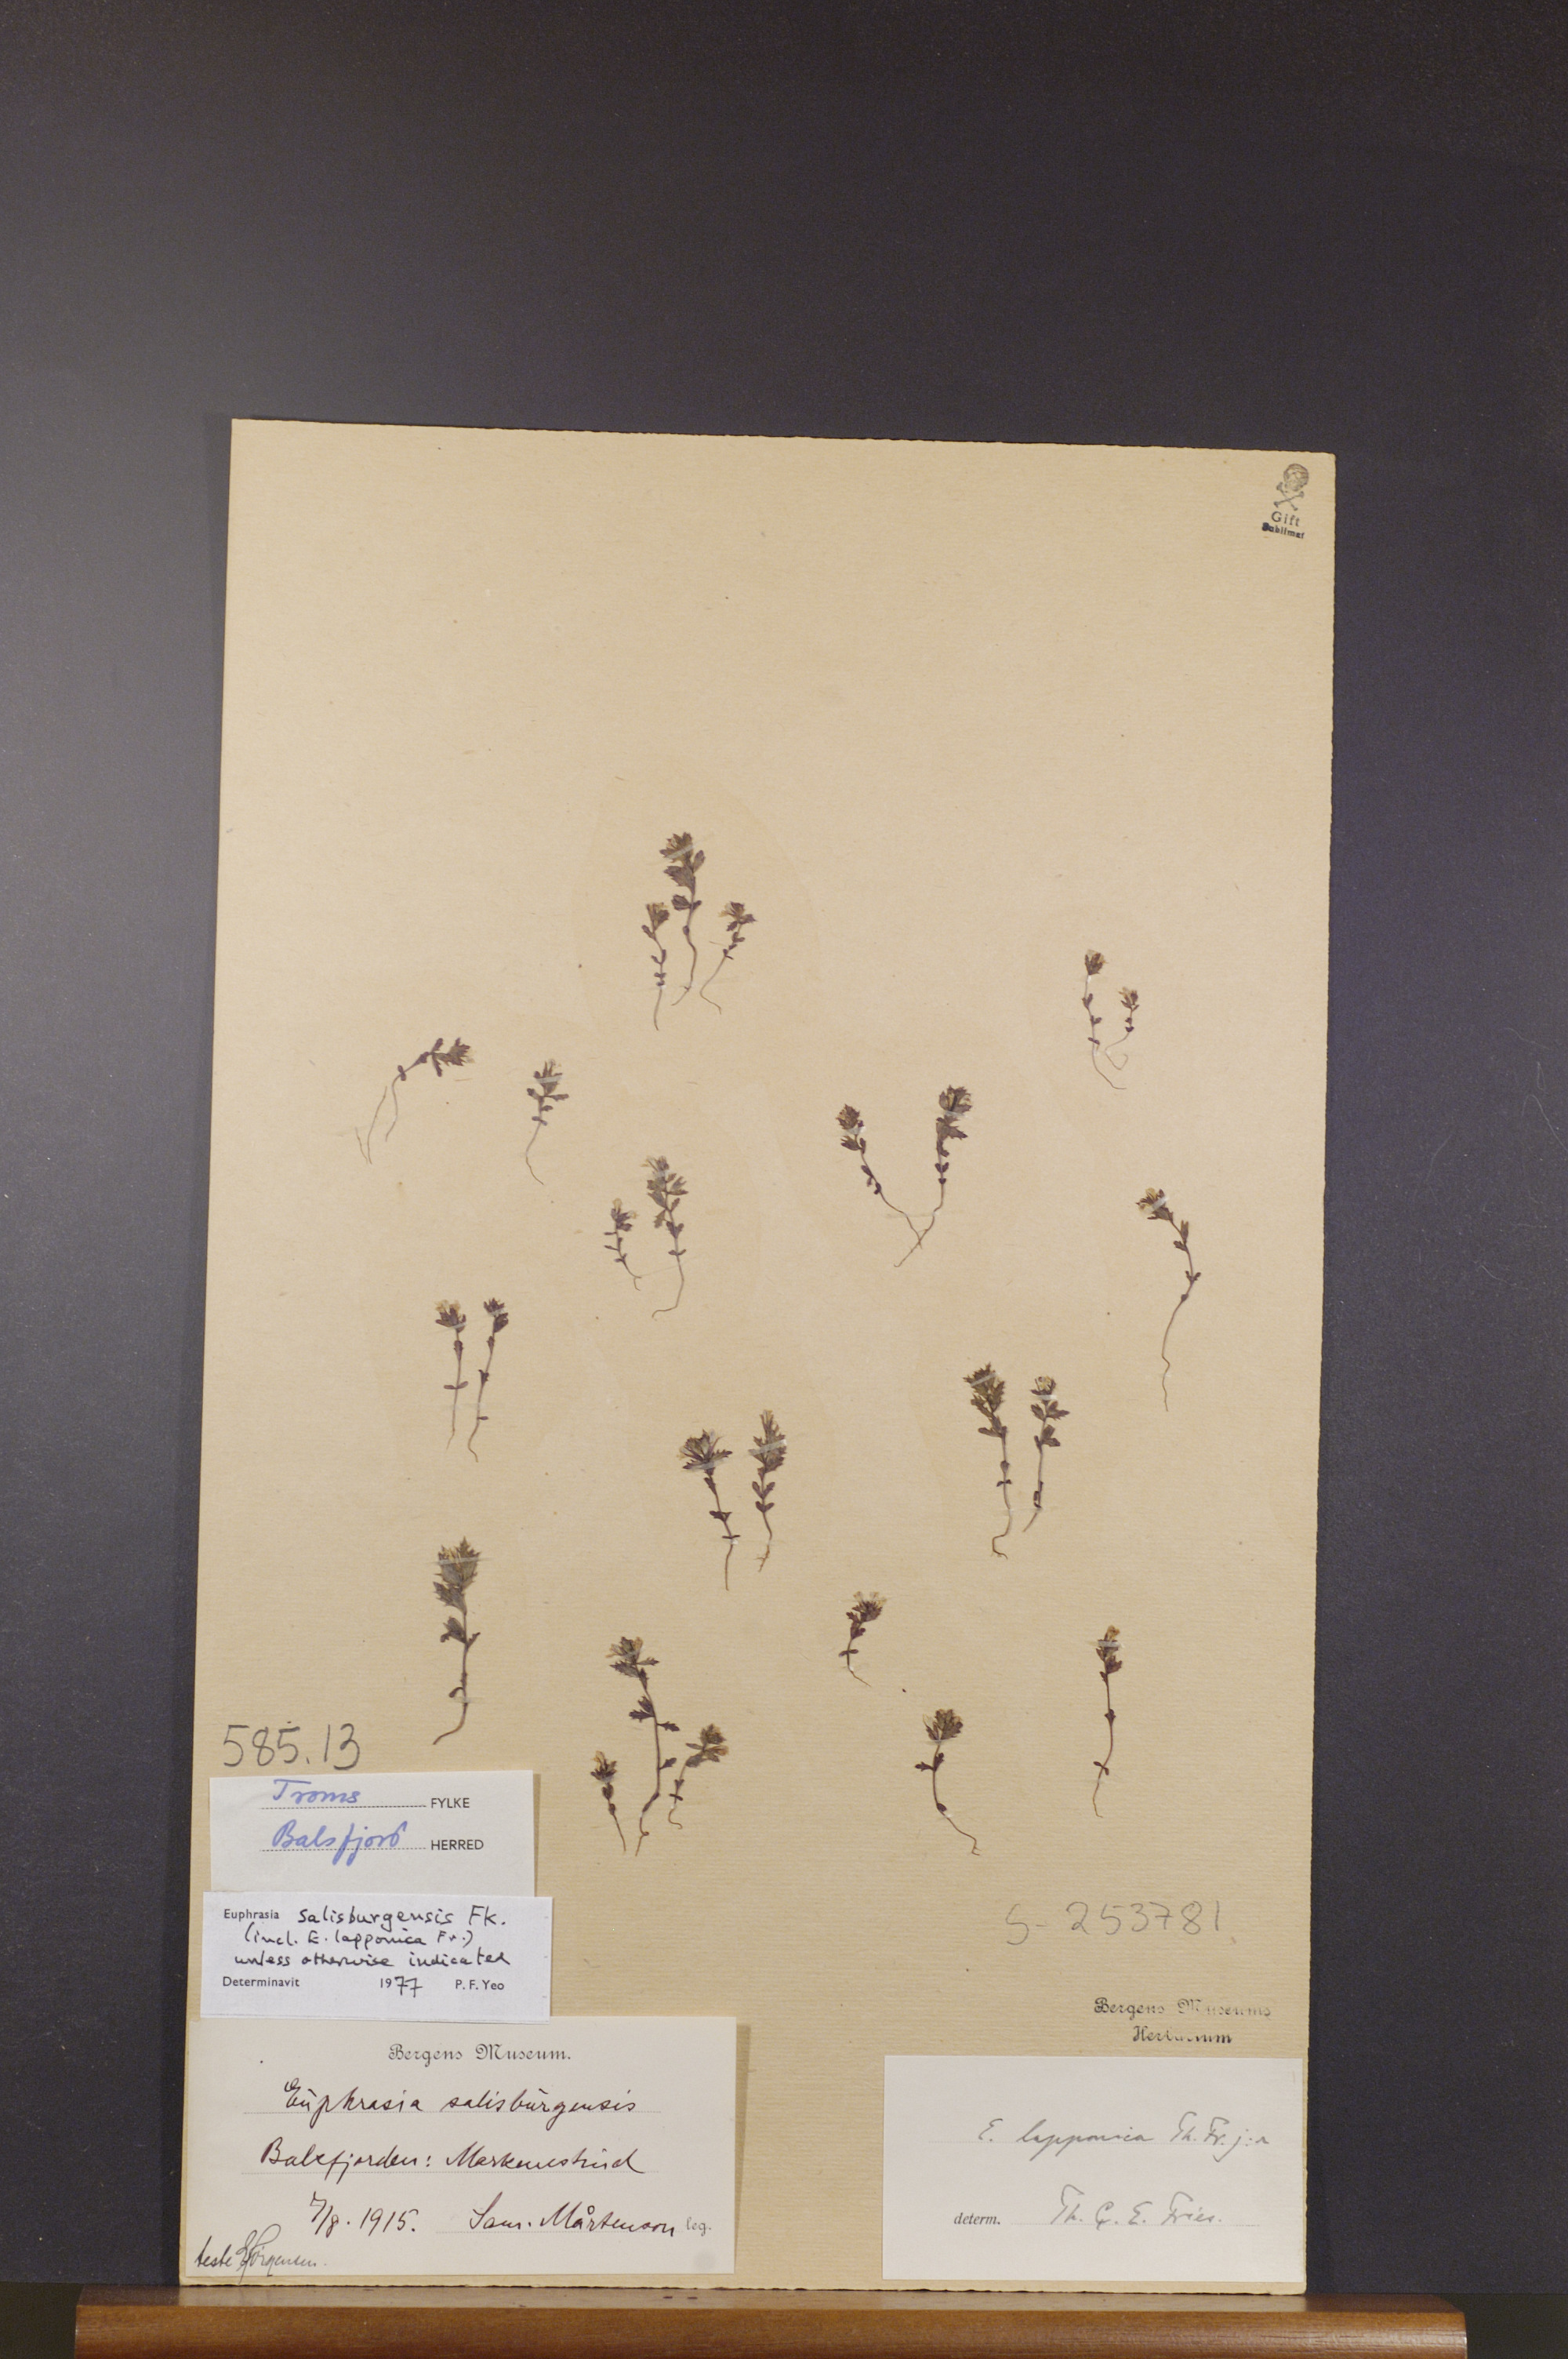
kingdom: Plantae
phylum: Tracheophyta
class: Magnoliopsida
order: Lamiales
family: Orobanchaceae
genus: Euphrasia
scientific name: Euphrasia salisburgensis
